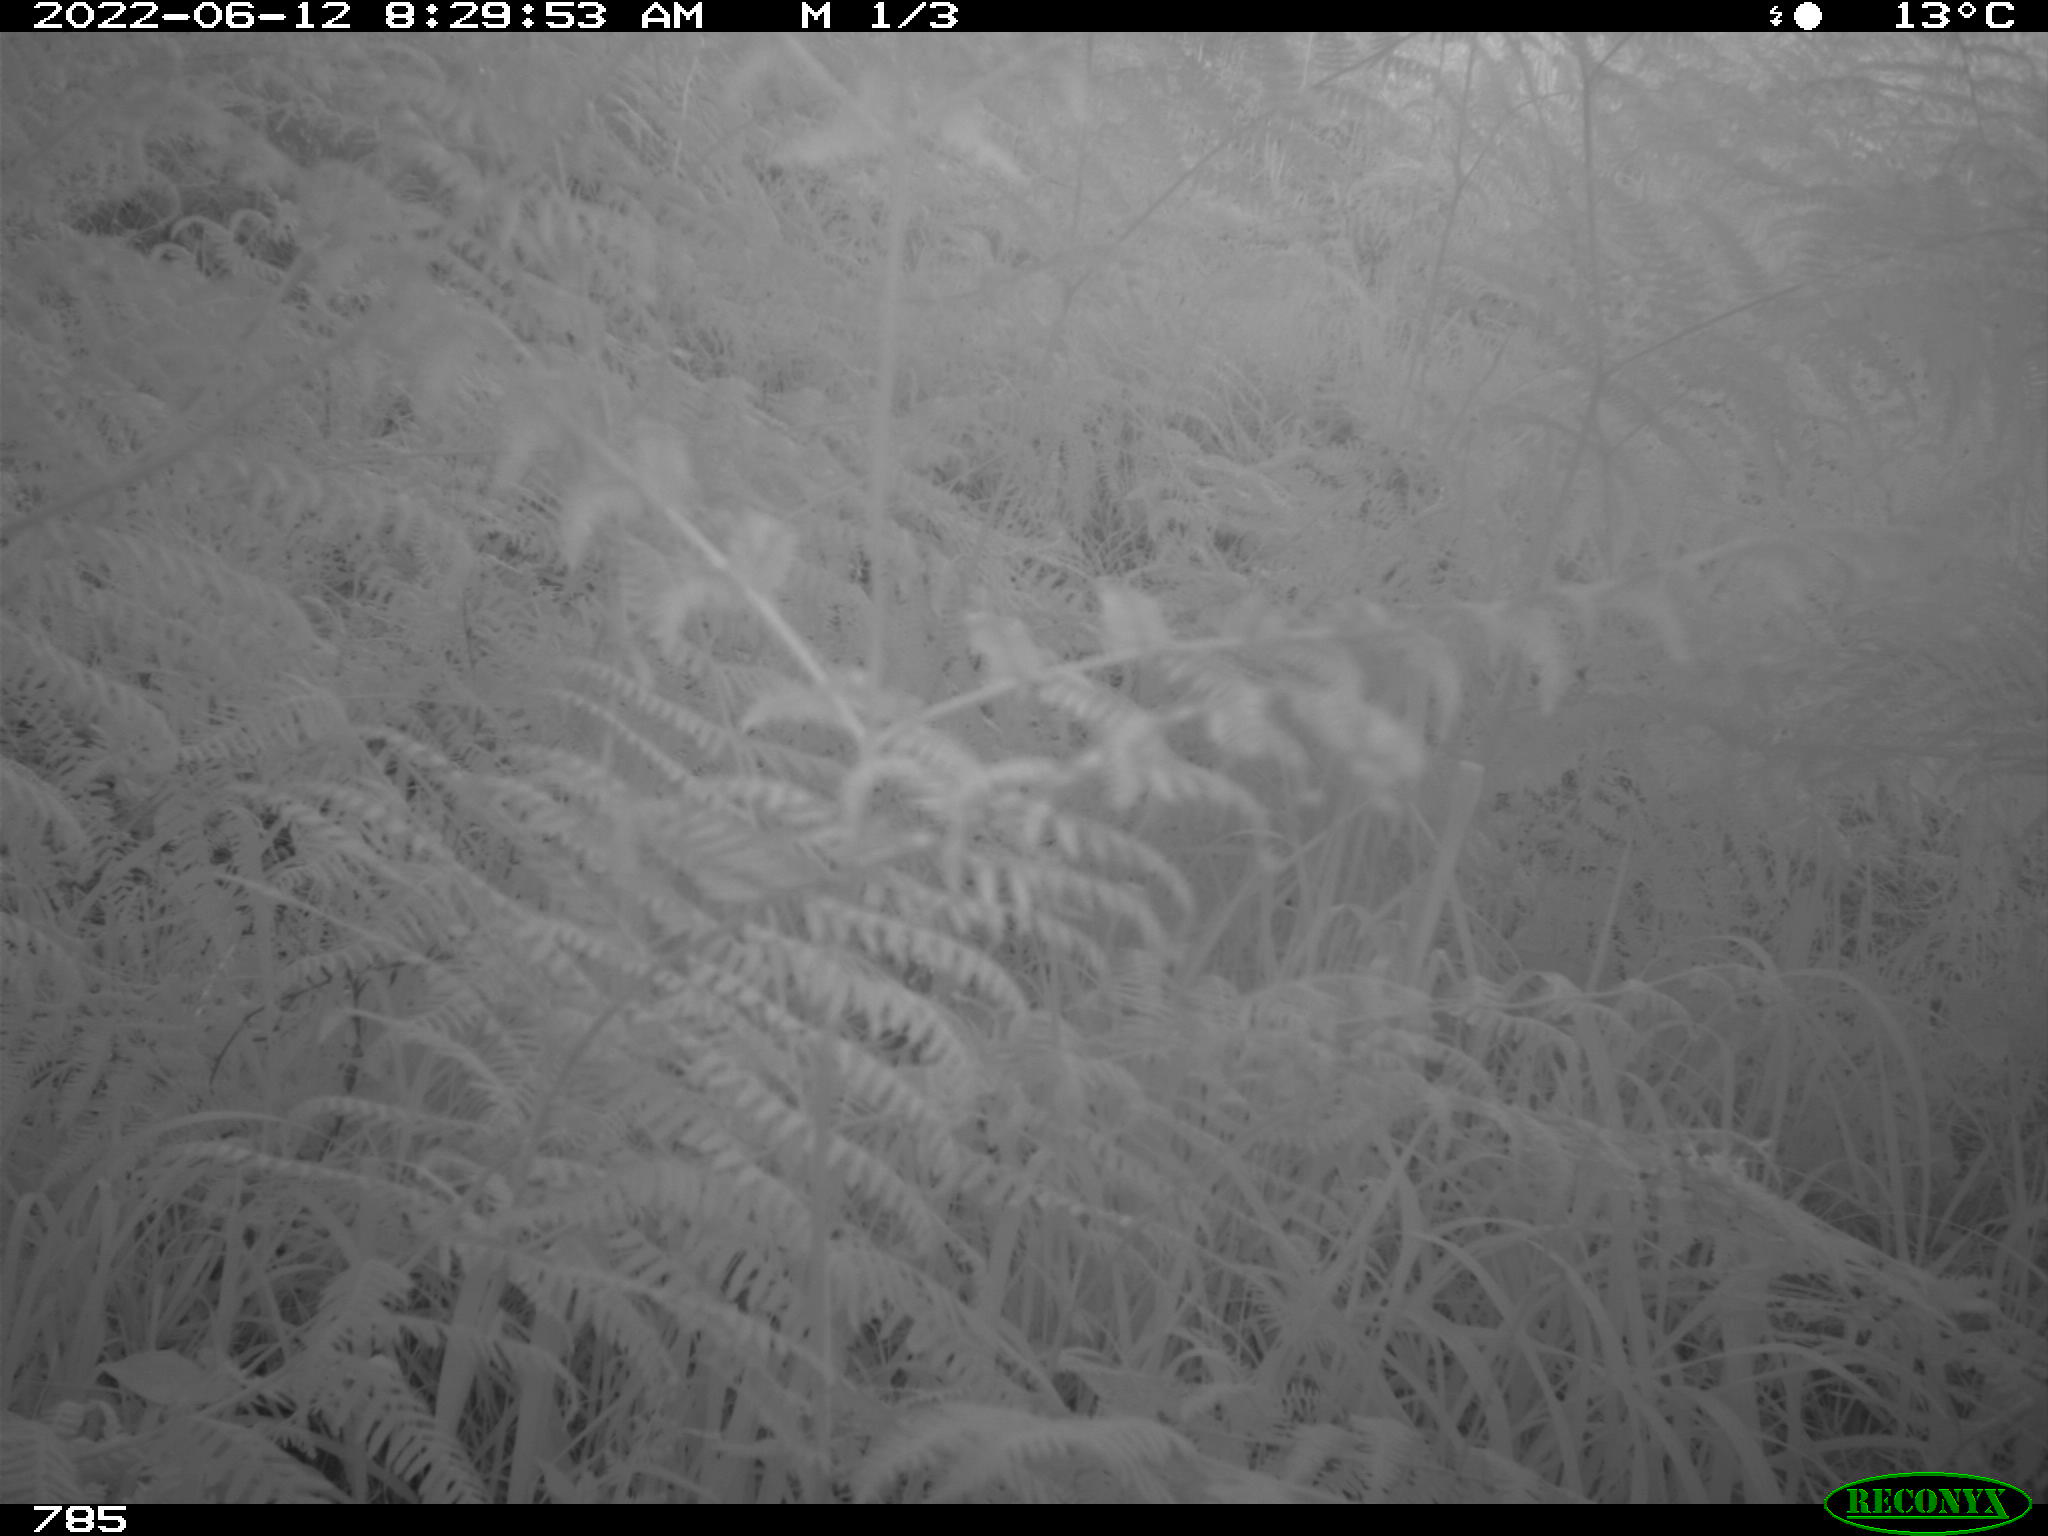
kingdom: Animalia
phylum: Chordata
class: Mammalia
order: Perissodactyla
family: Equidae
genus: Equus
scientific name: Equus caballus
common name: Horse
